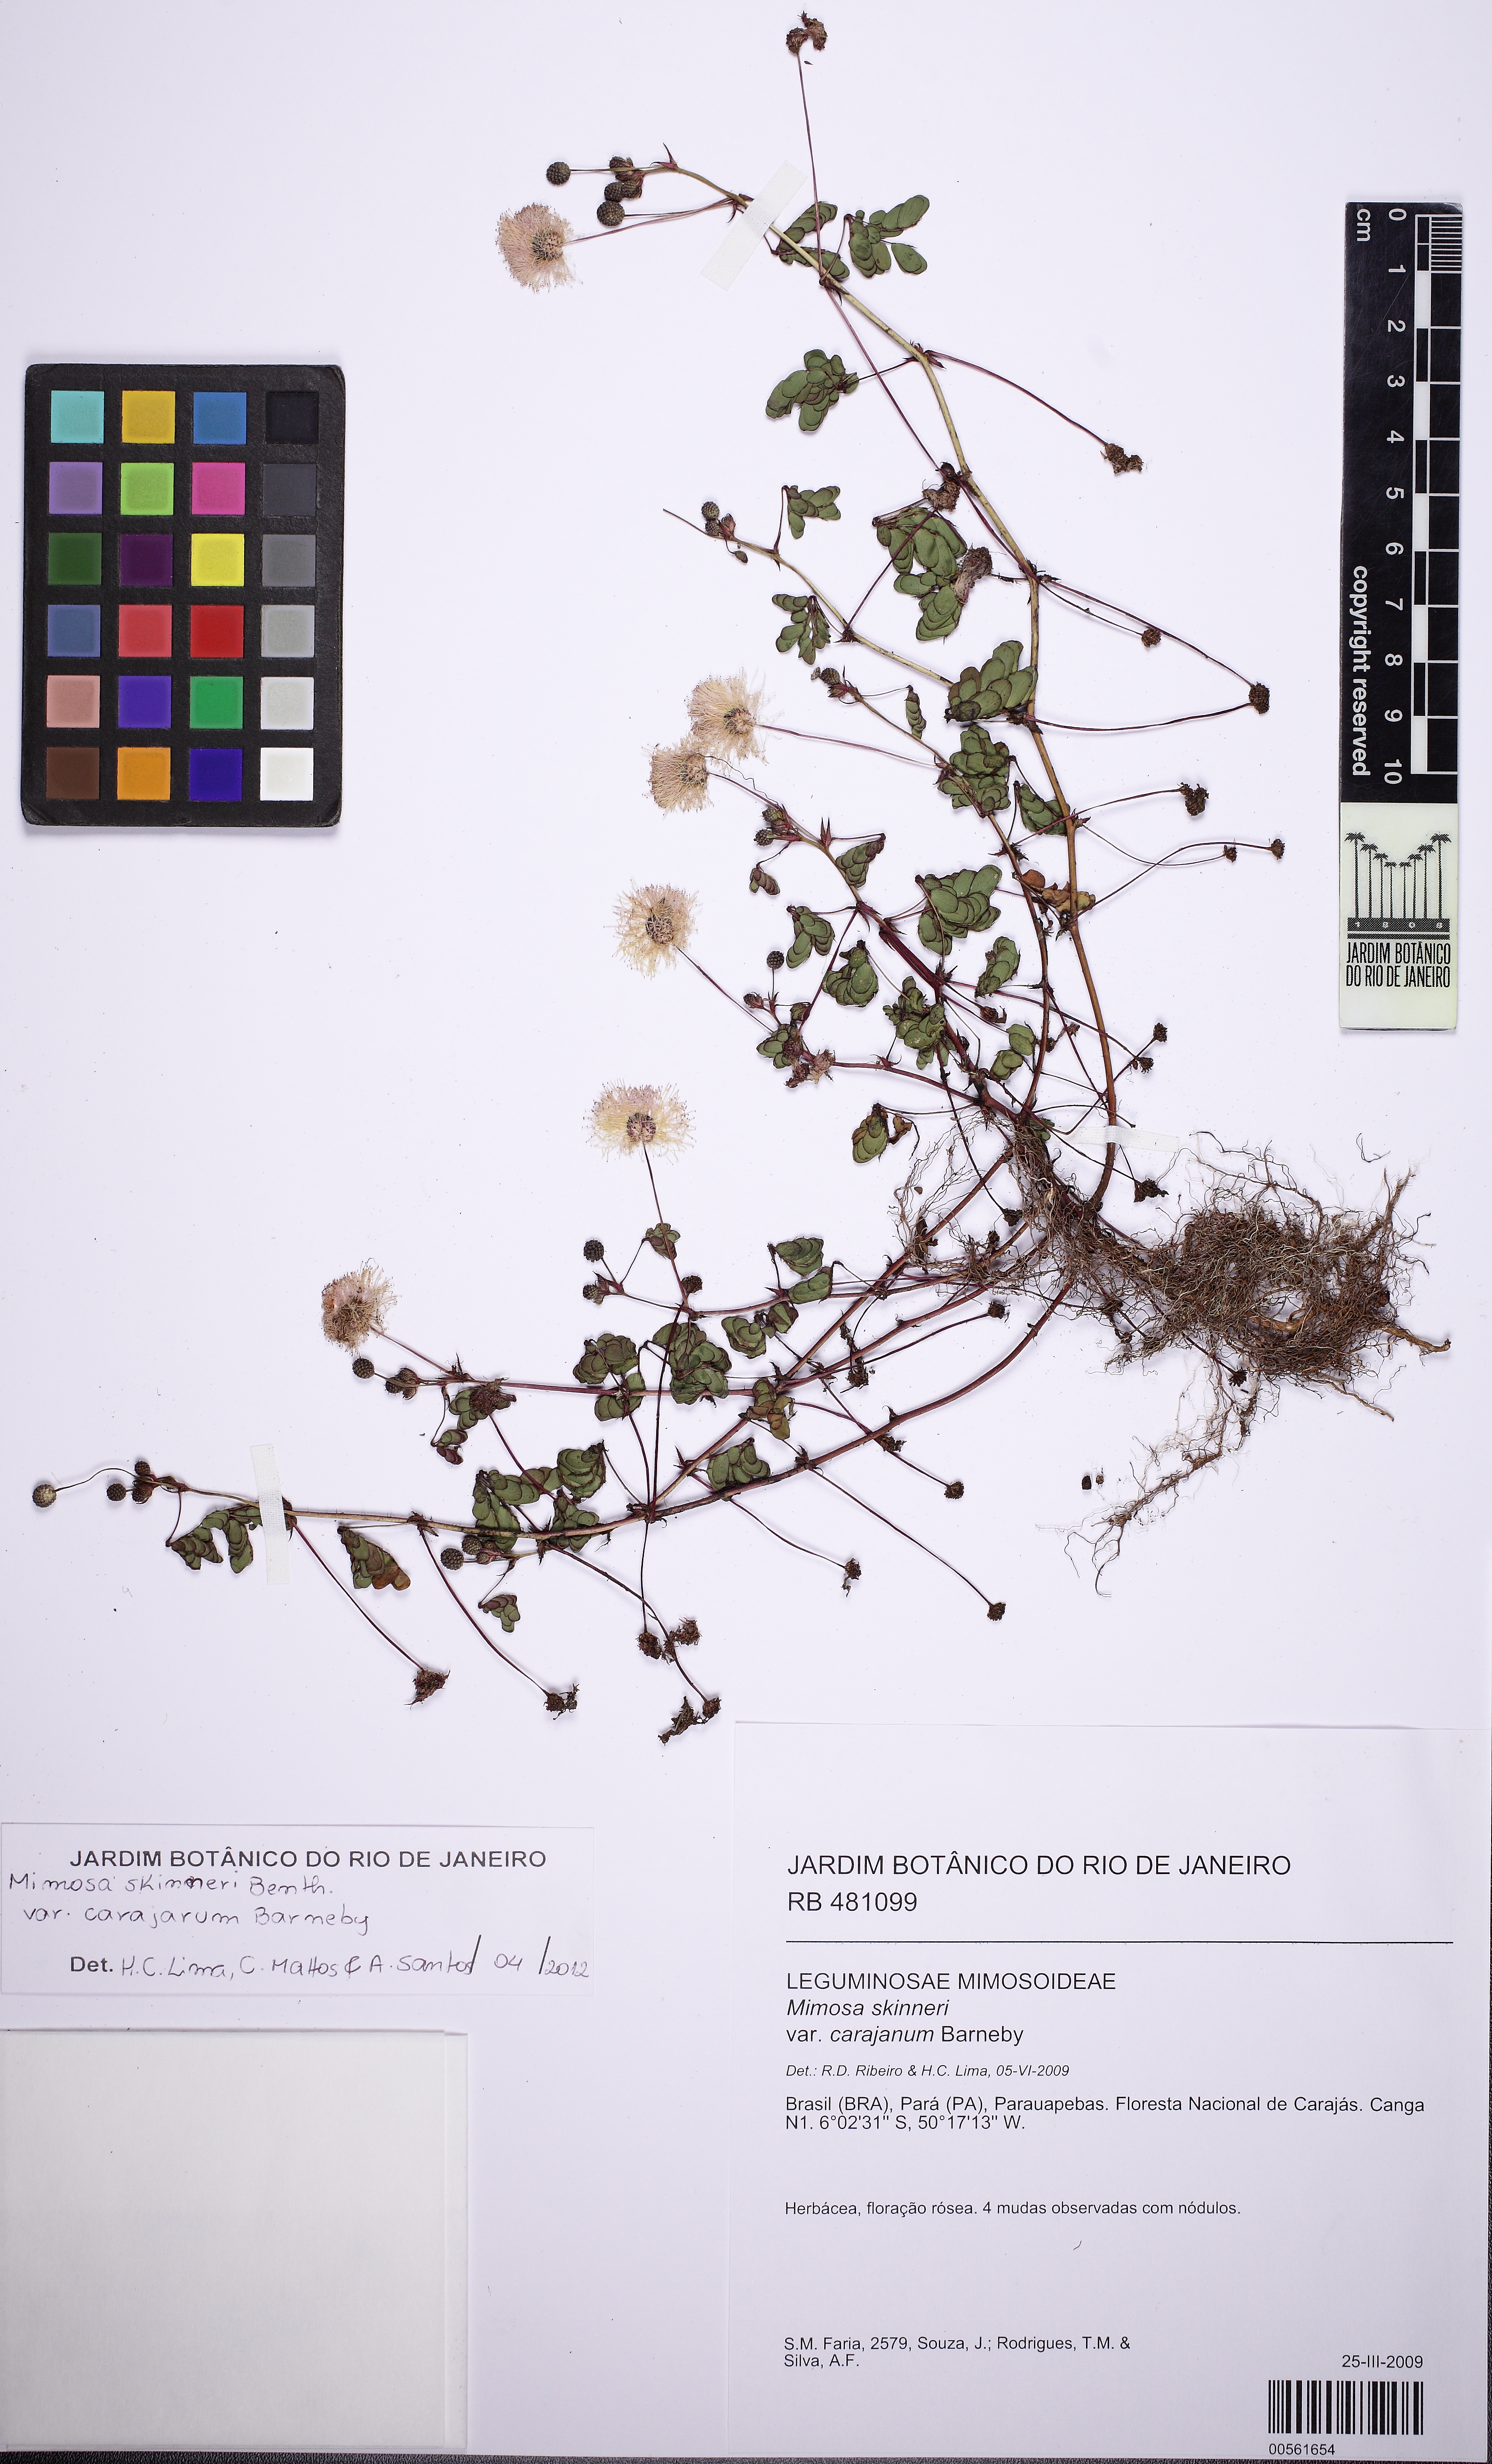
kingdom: Plantae
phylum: Tracheophyta
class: Magnoliopsida
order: Fabales
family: Fabaceae
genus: Mimosa
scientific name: Mimosa skinneri
